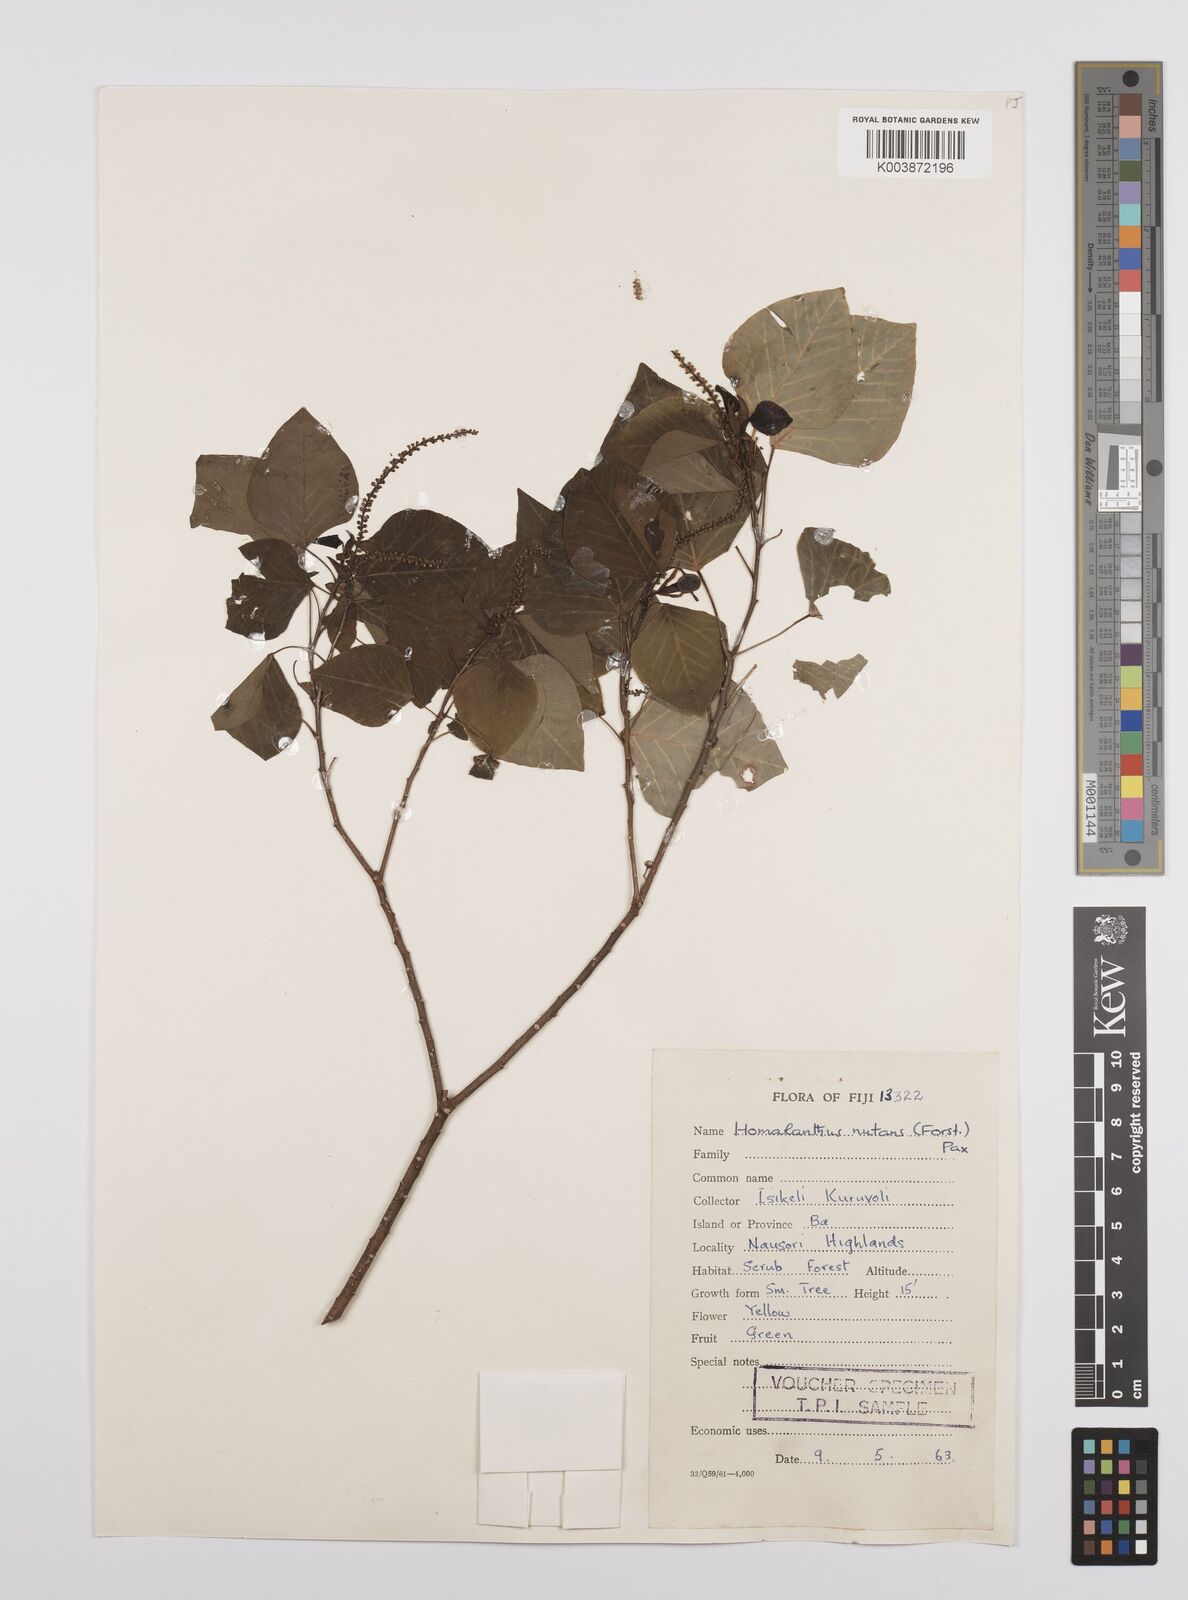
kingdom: Plantae
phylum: Tracheophyta
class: Magnoliopsida
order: Malpighiales
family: Euphorbiaceae
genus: Homalanthus
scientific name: Homalanthus nutans
